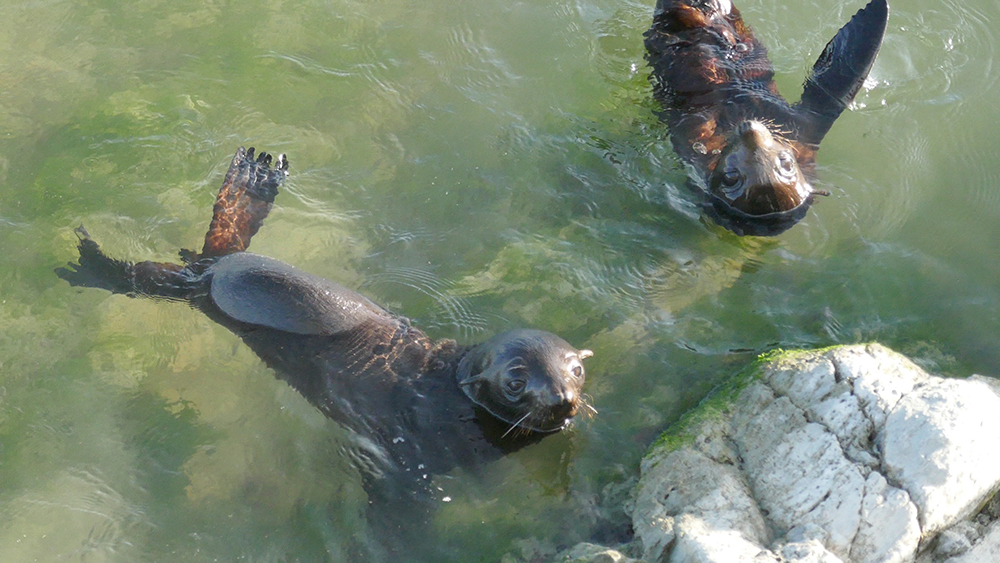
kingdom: Animalia
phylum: Chordata
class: Mammalia
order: Carnivora
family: Otariidae
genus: Arctocephalus
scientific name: Arctocephalus forsteri
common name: New zealand fur seal
